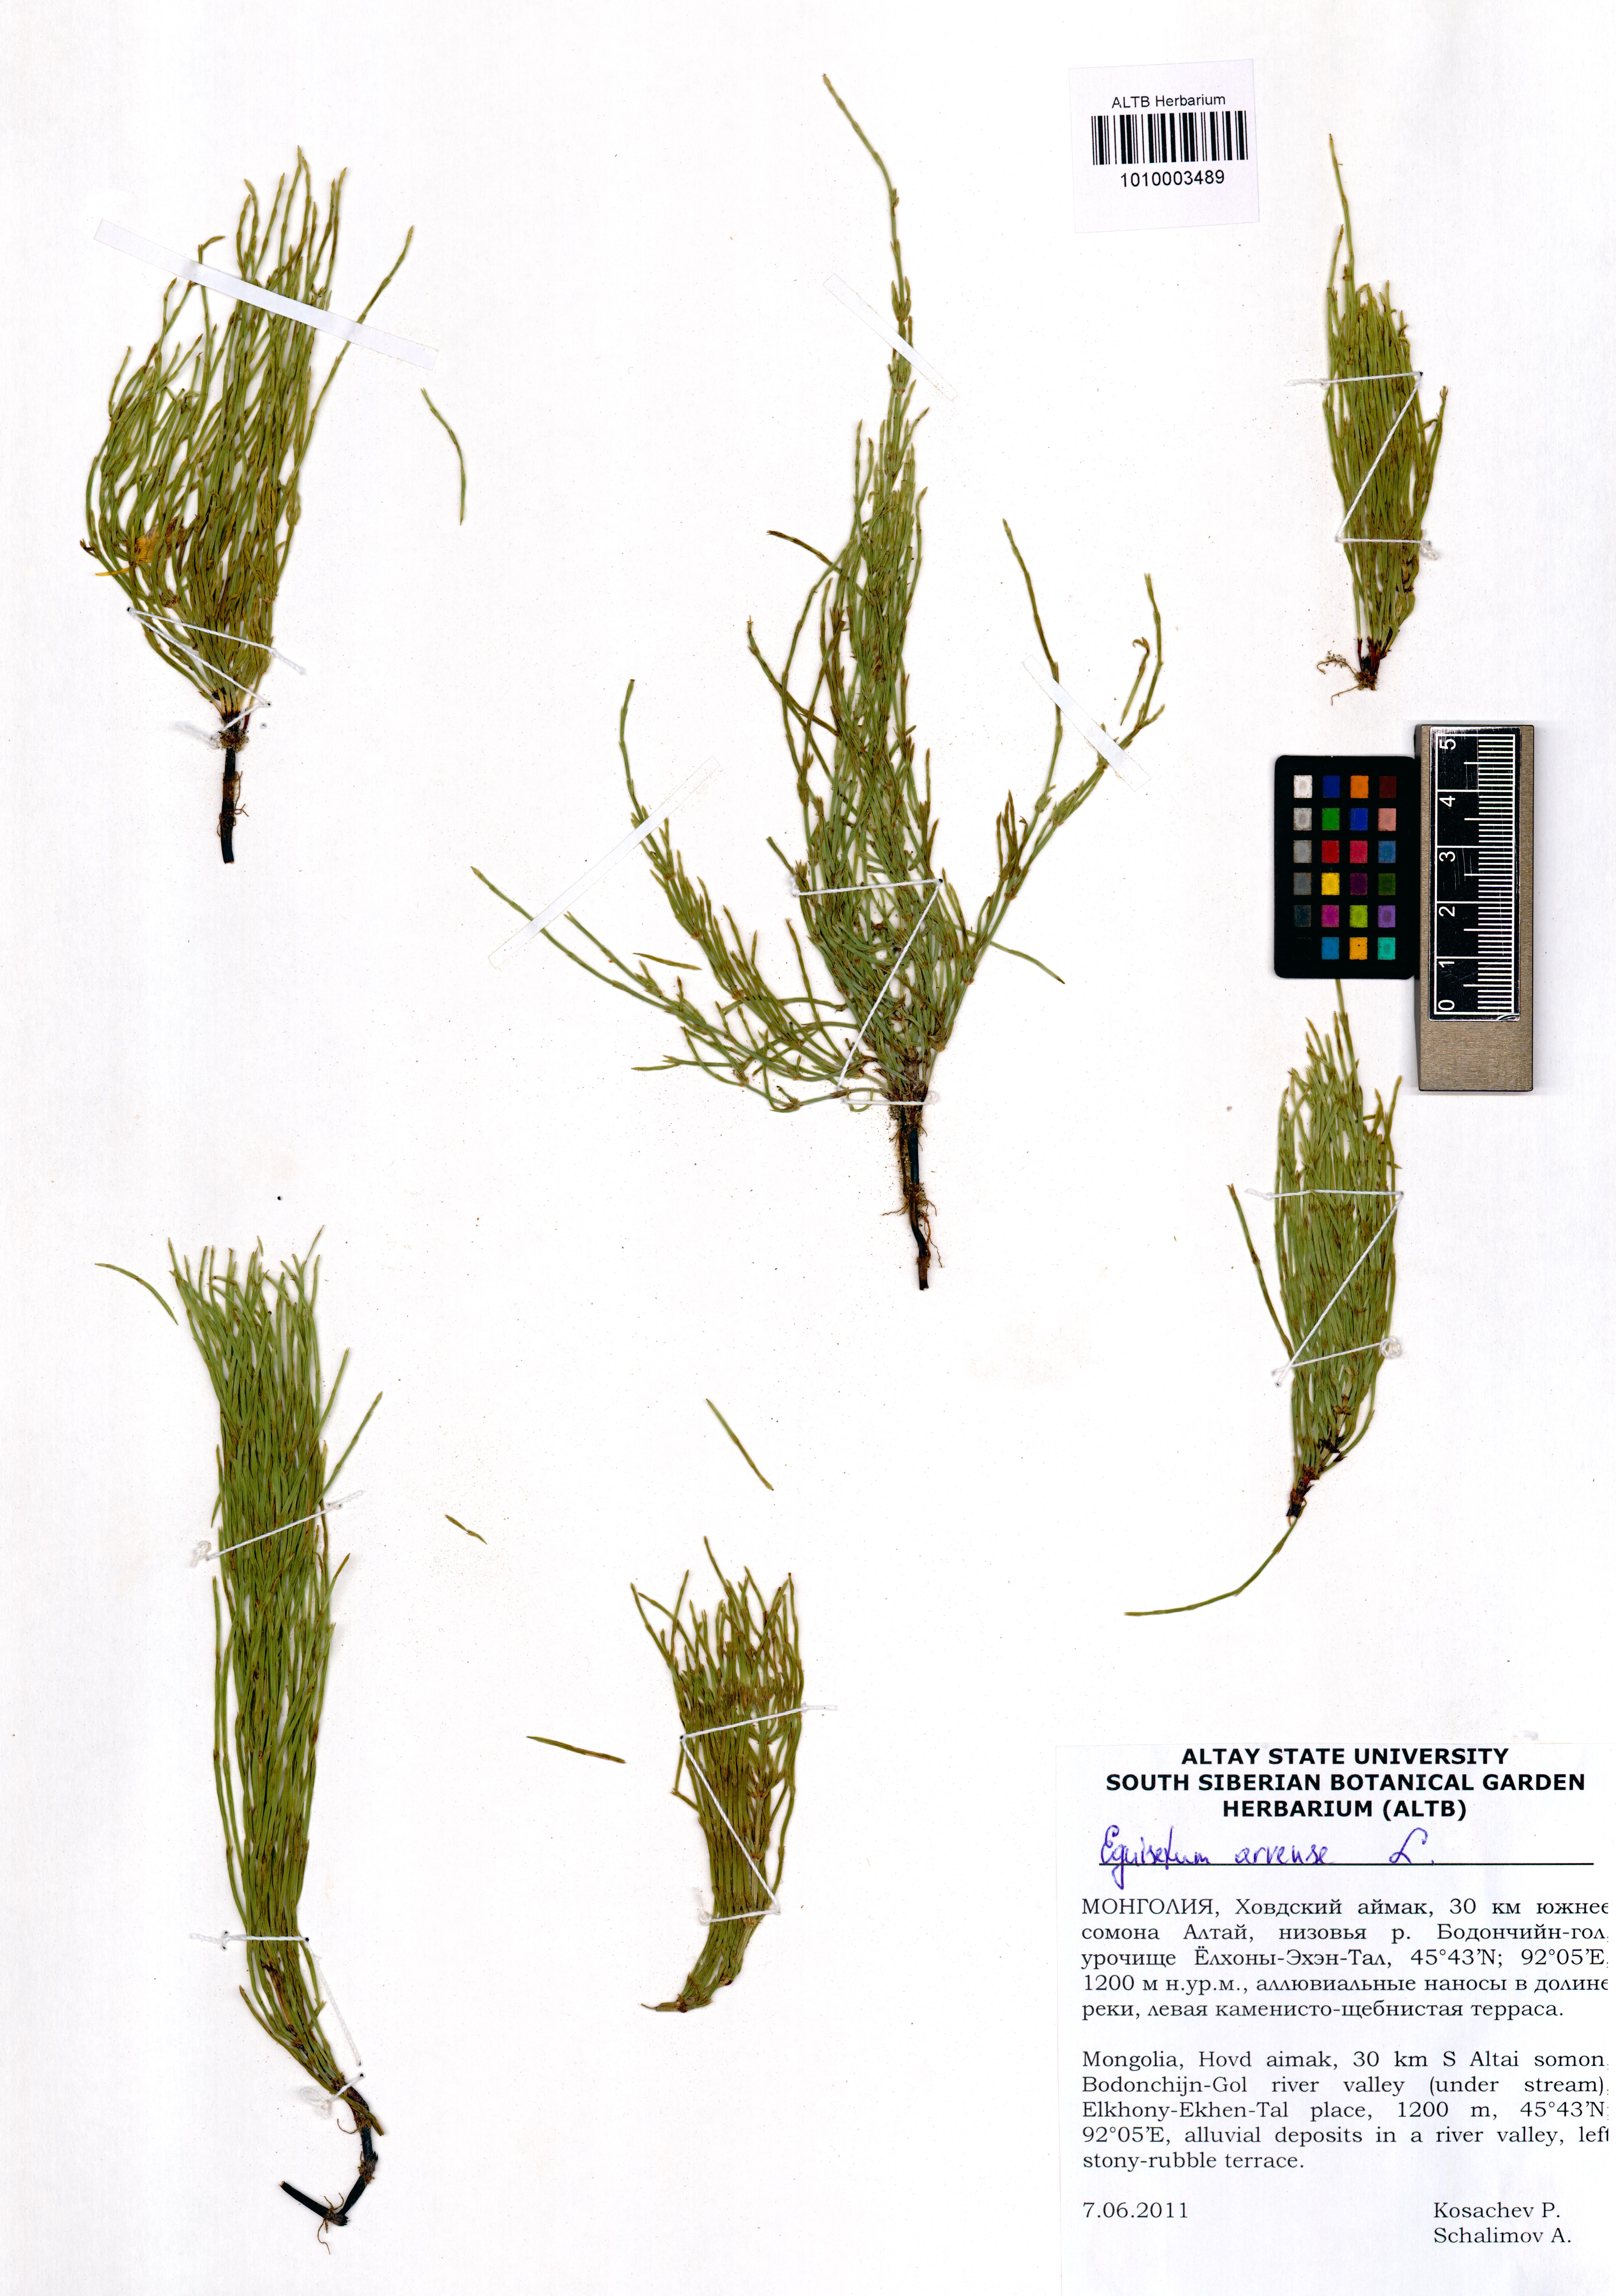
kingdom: Plantae
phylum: Tracheophyta
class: Polypodiopsida
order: Equisetales
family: Equisetaceae
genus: Equisetum
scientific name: Equisetum arvense
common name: Field horsetail
